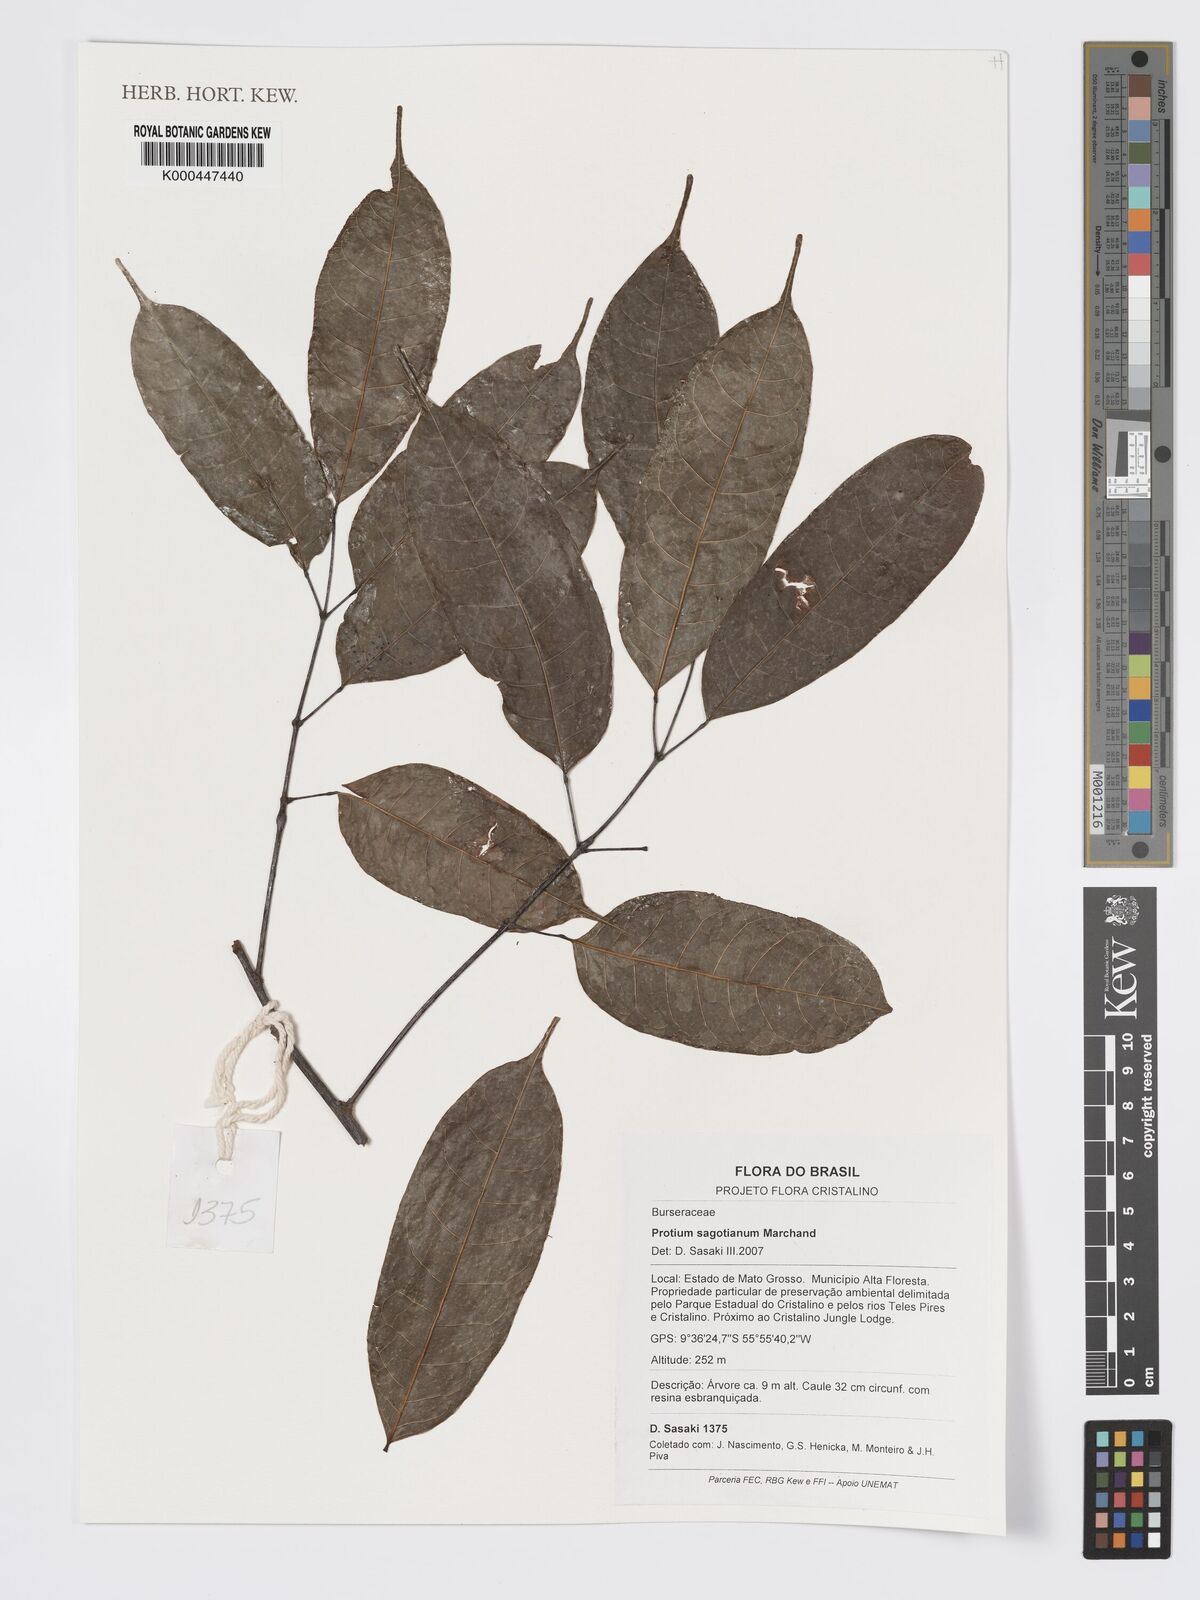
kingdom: Plantae
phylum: Tracheophyta
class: Magnoliopsida
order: Sapindales
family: Burseraceae
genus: Protium
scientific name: Protium sagotianum
